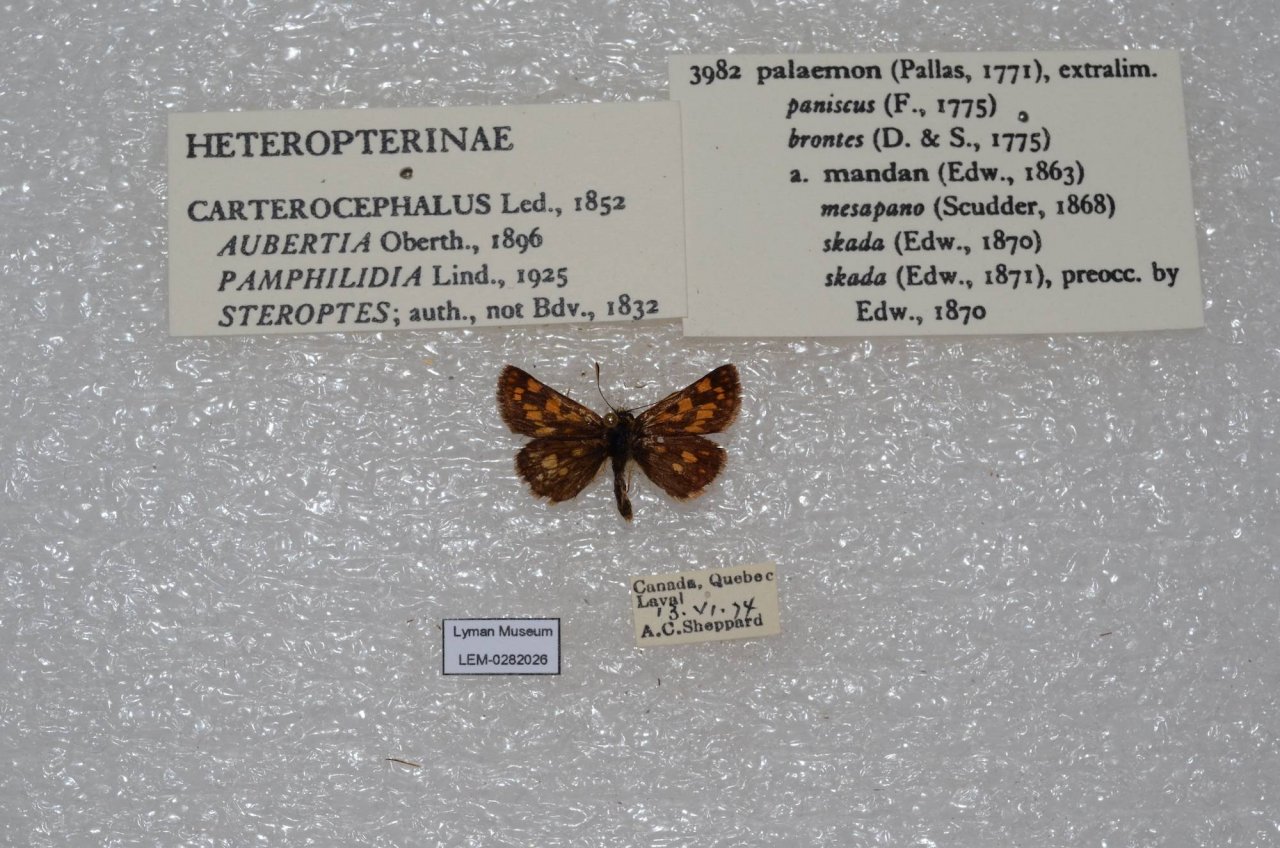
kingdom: Animalia
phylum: Arthropoda
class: Insecta
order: Lepidoptera
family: Hesperiidae
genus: Carterocephalus
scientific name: Carterocephalus palaemon
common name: Chequered Skipper
